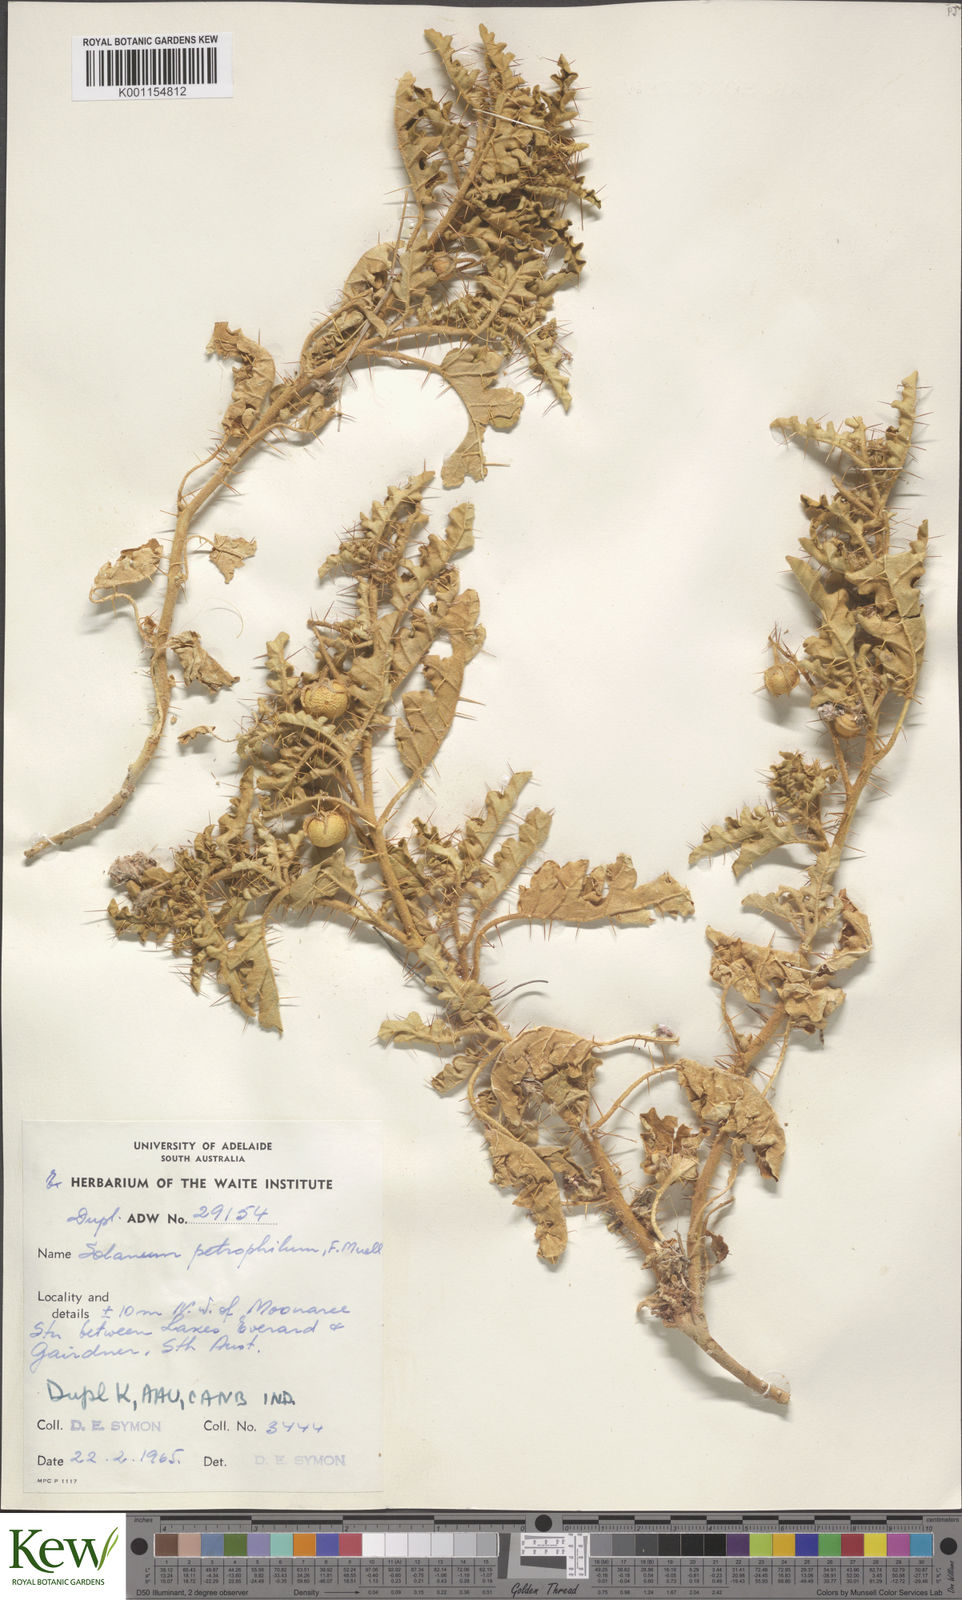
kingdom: Plantae
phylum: Tracheophyta
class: Magnoliopsida
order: Solanales
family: Solanaceae
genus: Solanum
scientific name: Solanum petrophilum
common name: Rock nightshade
